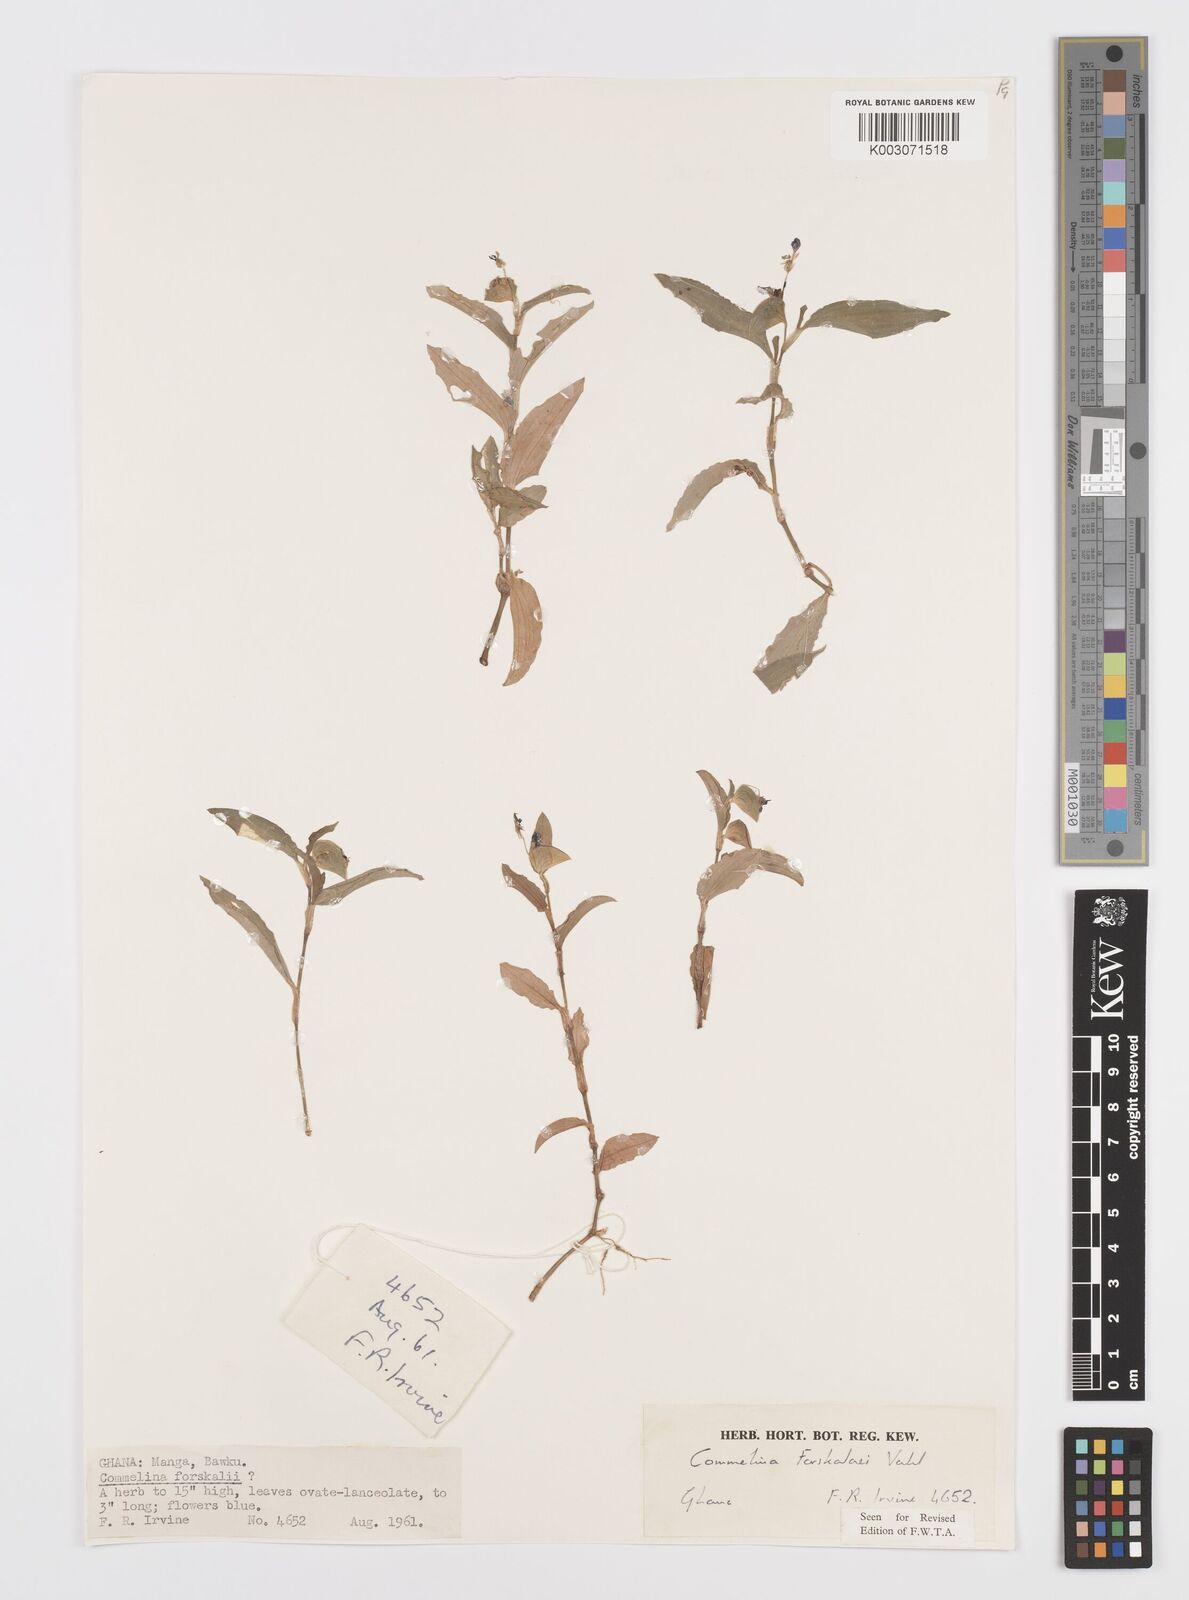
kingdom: Plantae
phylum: Tracheophyta
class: Liliopsida
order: Commelinales
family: Commelinaceae
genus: Commelina
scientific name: Commelina forskaolii
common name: Rat's ear
